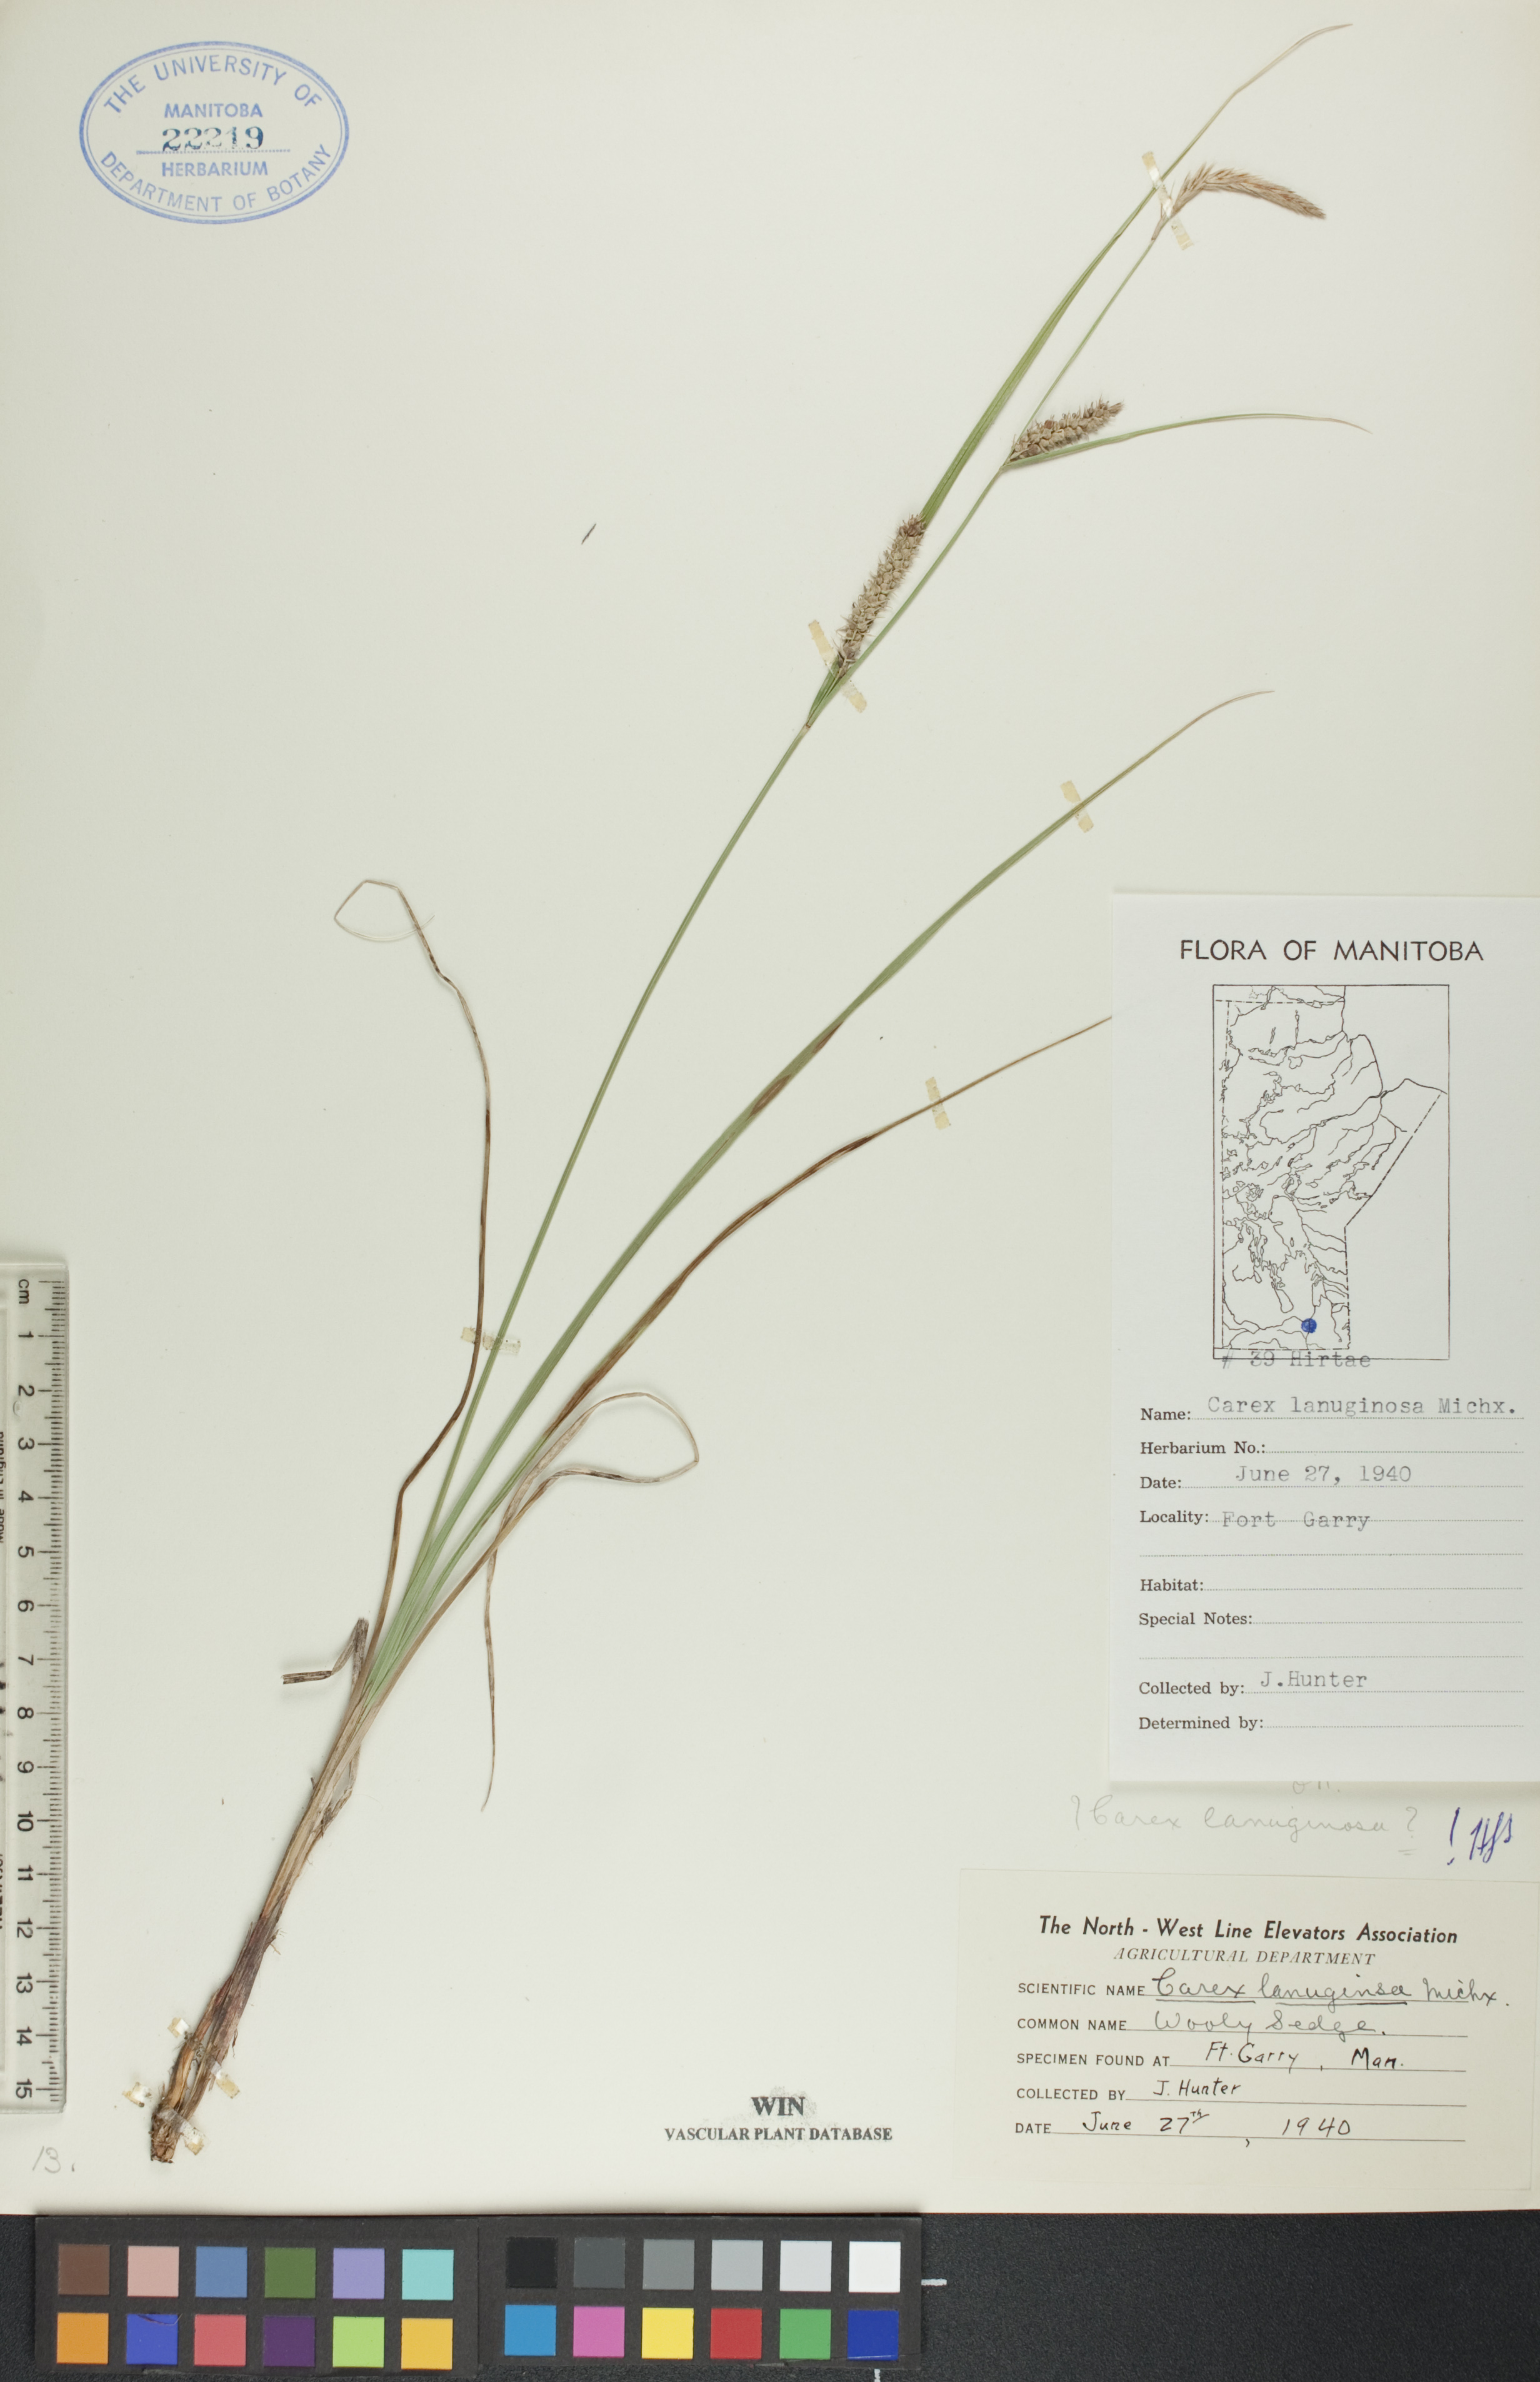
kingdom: Plantae
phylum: Tracheophyta
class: Liliopsida
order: Poales
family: Cyperaceae
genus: Carex
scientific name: Carex lasiocarpa
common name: Slender sedge
